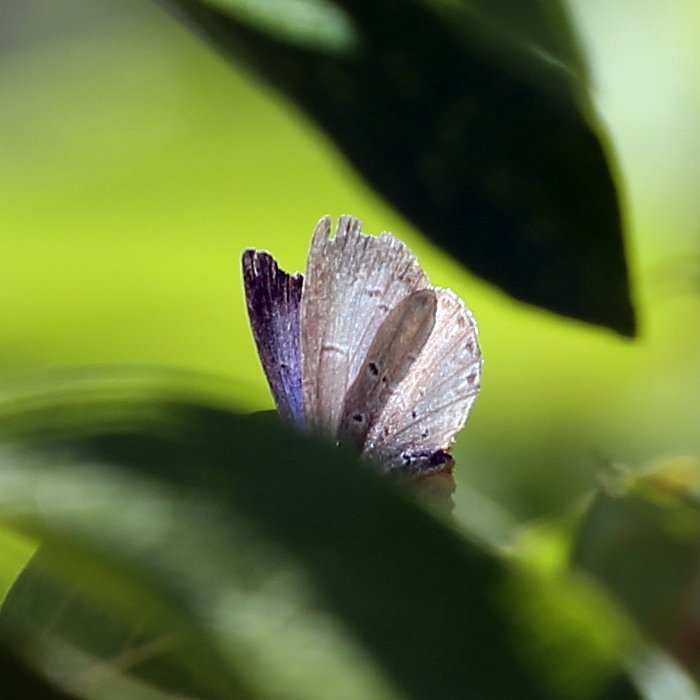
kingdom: Animalia
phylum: Arthropoda
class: Insecta
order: Lepidoptera
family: Lycaenidae
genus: Celastrina
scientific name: Celastrina lucia
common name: Northern Spring Azure
